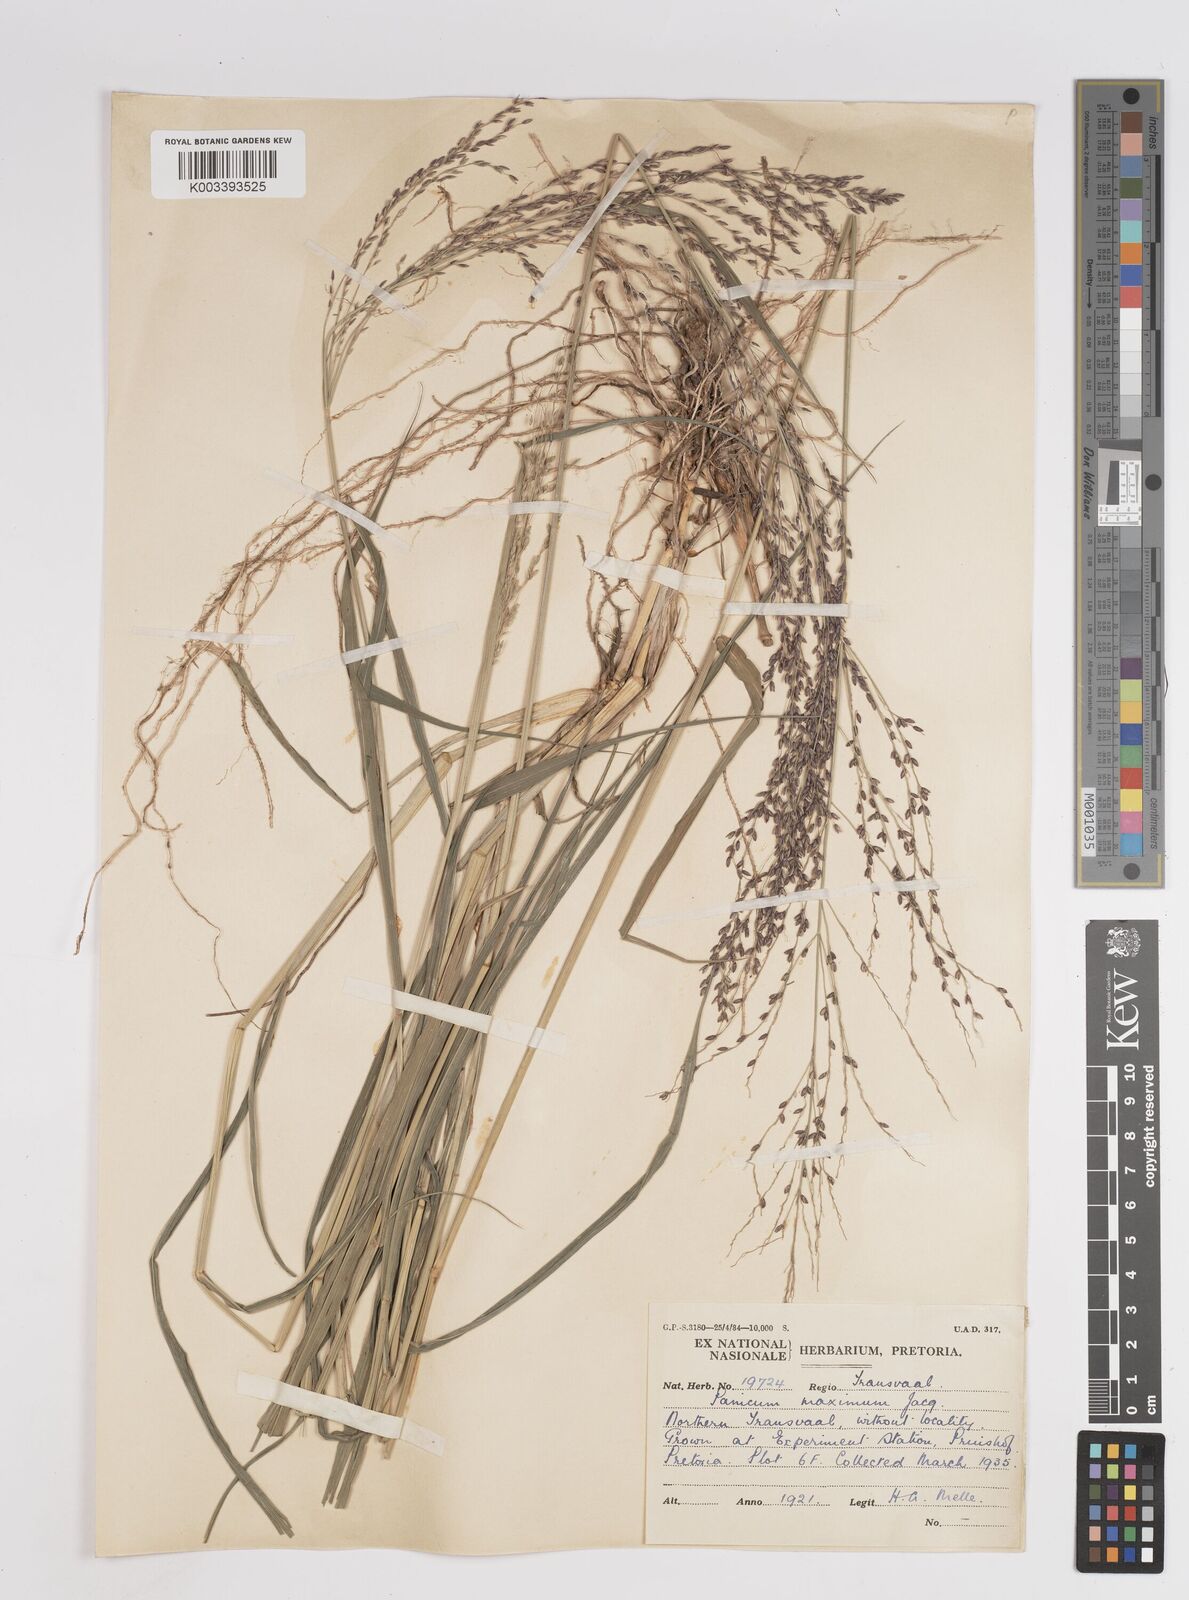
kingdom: Plantae
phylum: Tracheophyta
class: Liliopsida
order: Poales
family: Poaceae
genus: Megathyrsus
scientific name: Megathyrsus maximus
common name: Guineagrass
